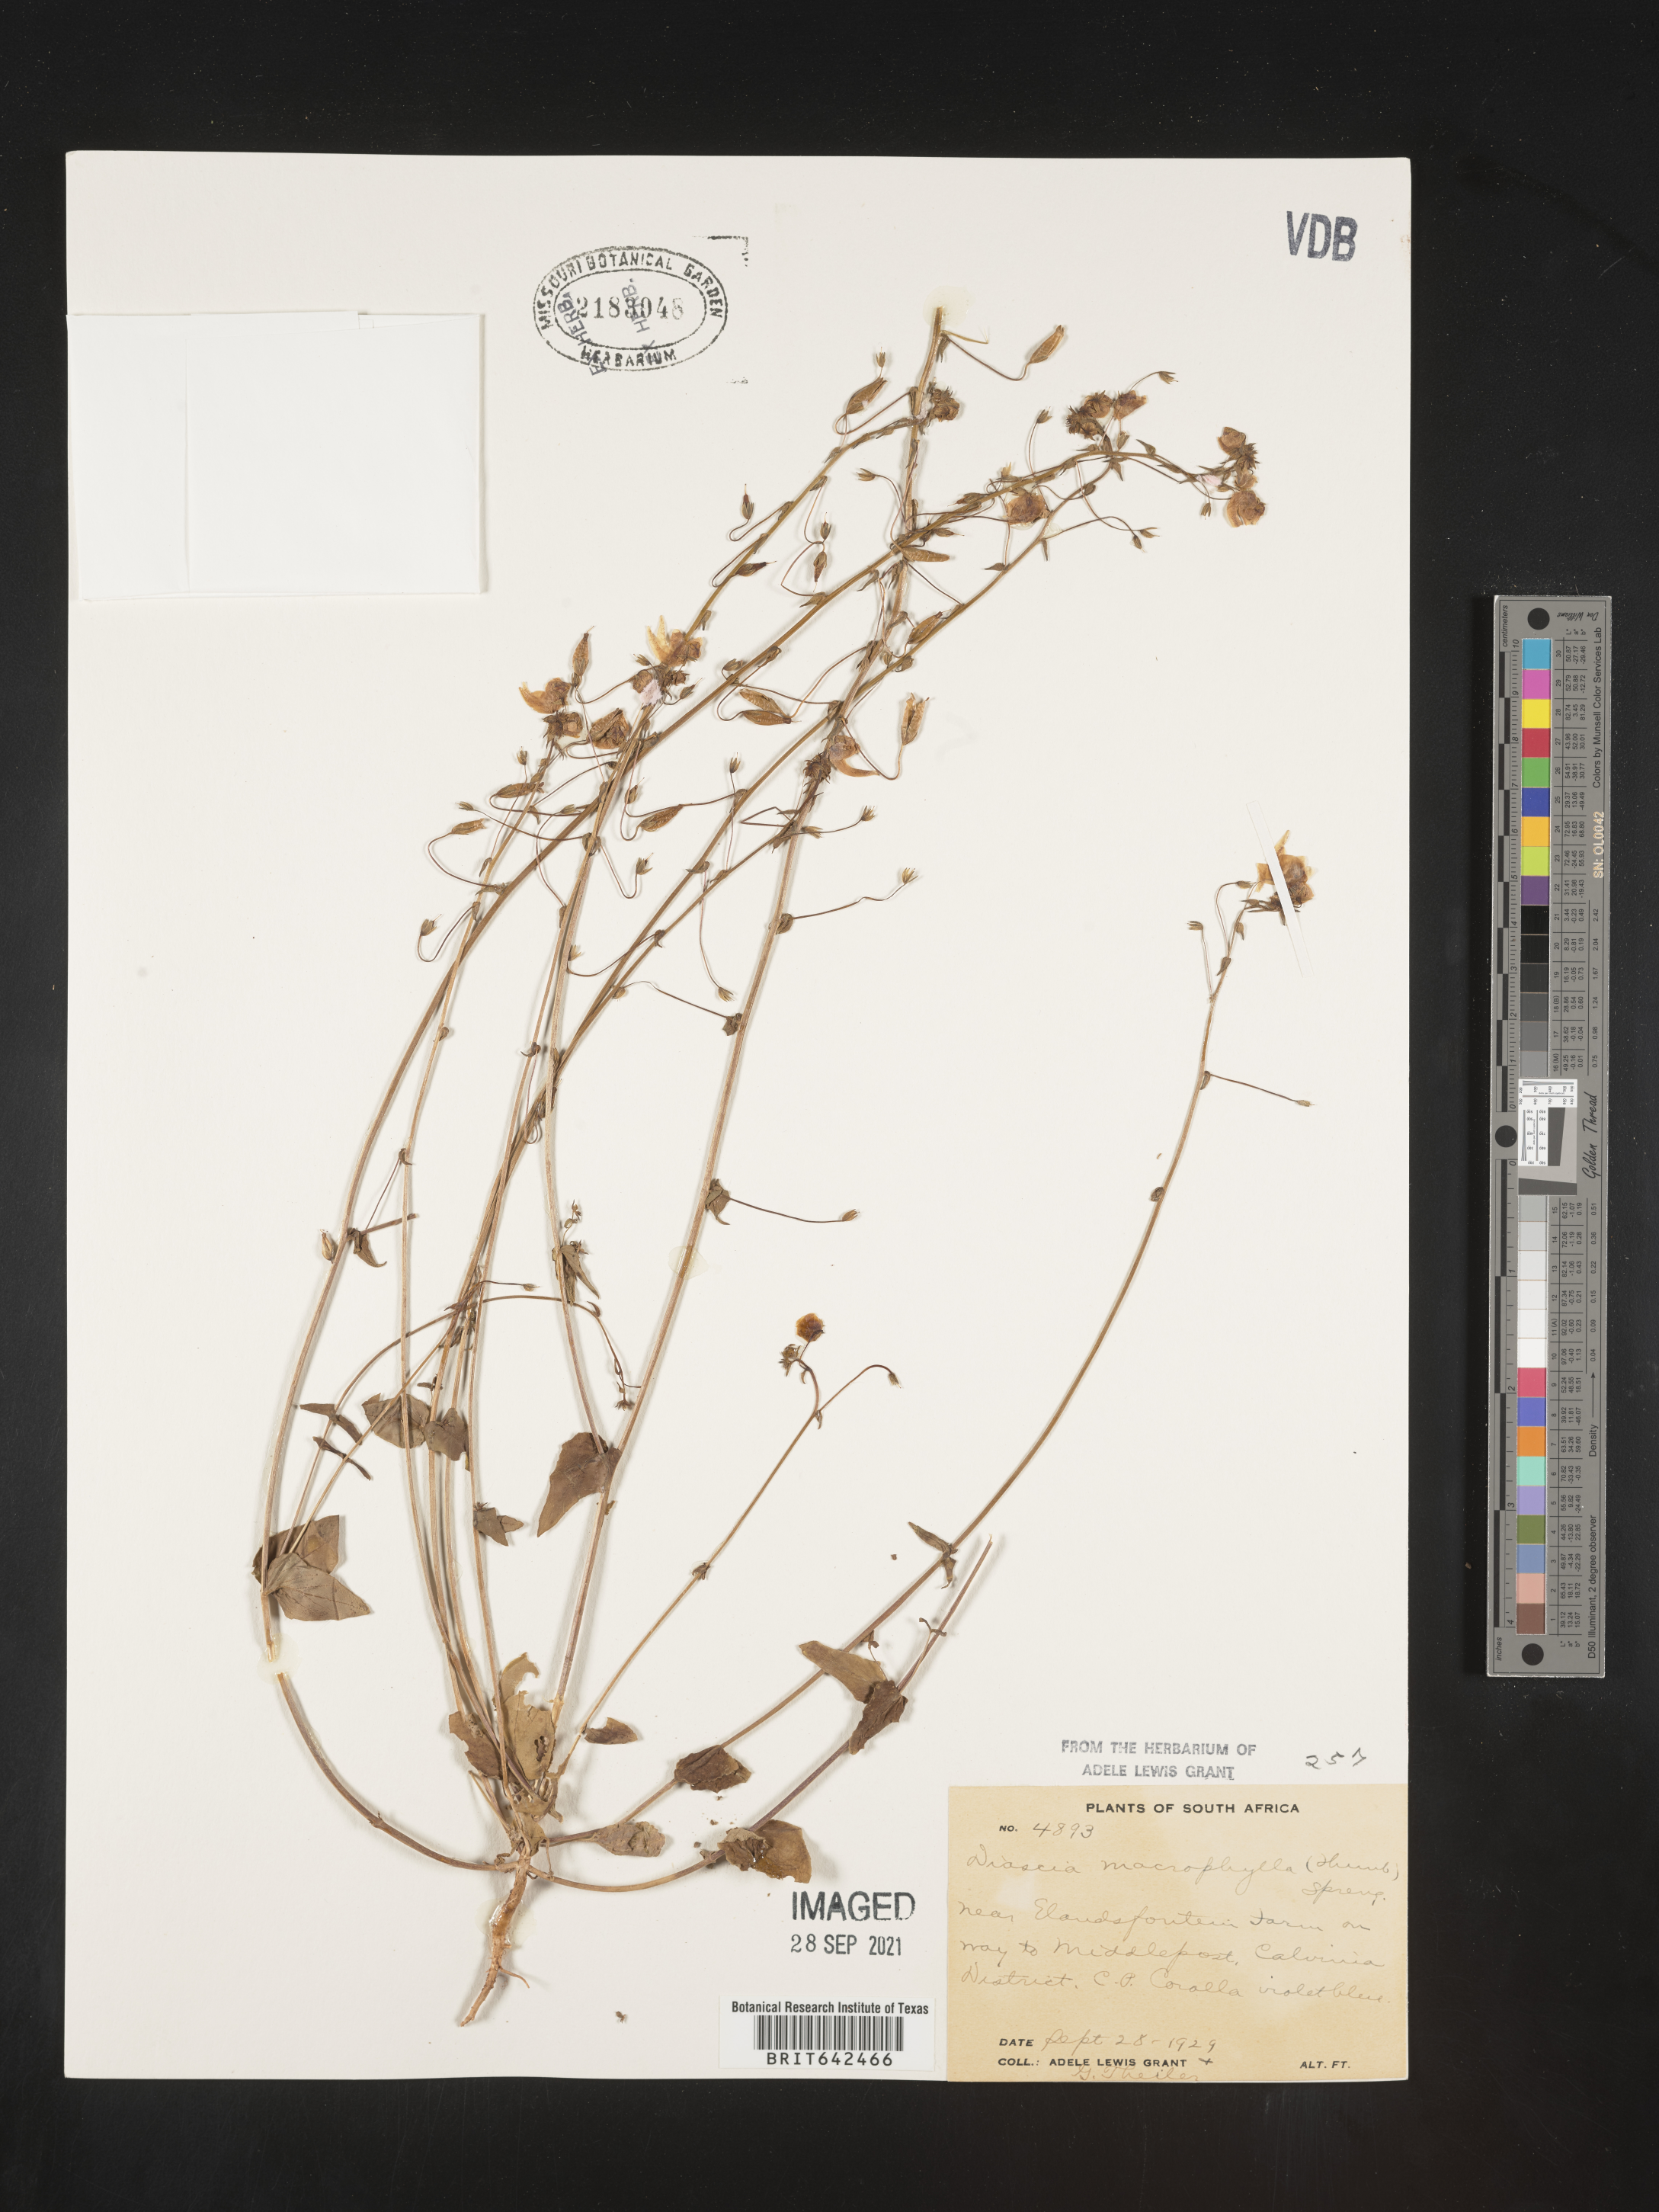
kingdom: Plantae
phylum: Tracheophyta
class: Magnoliopsida
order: Lamiales
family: Scrophulariaceae
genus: Diascia
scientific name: Diascia
